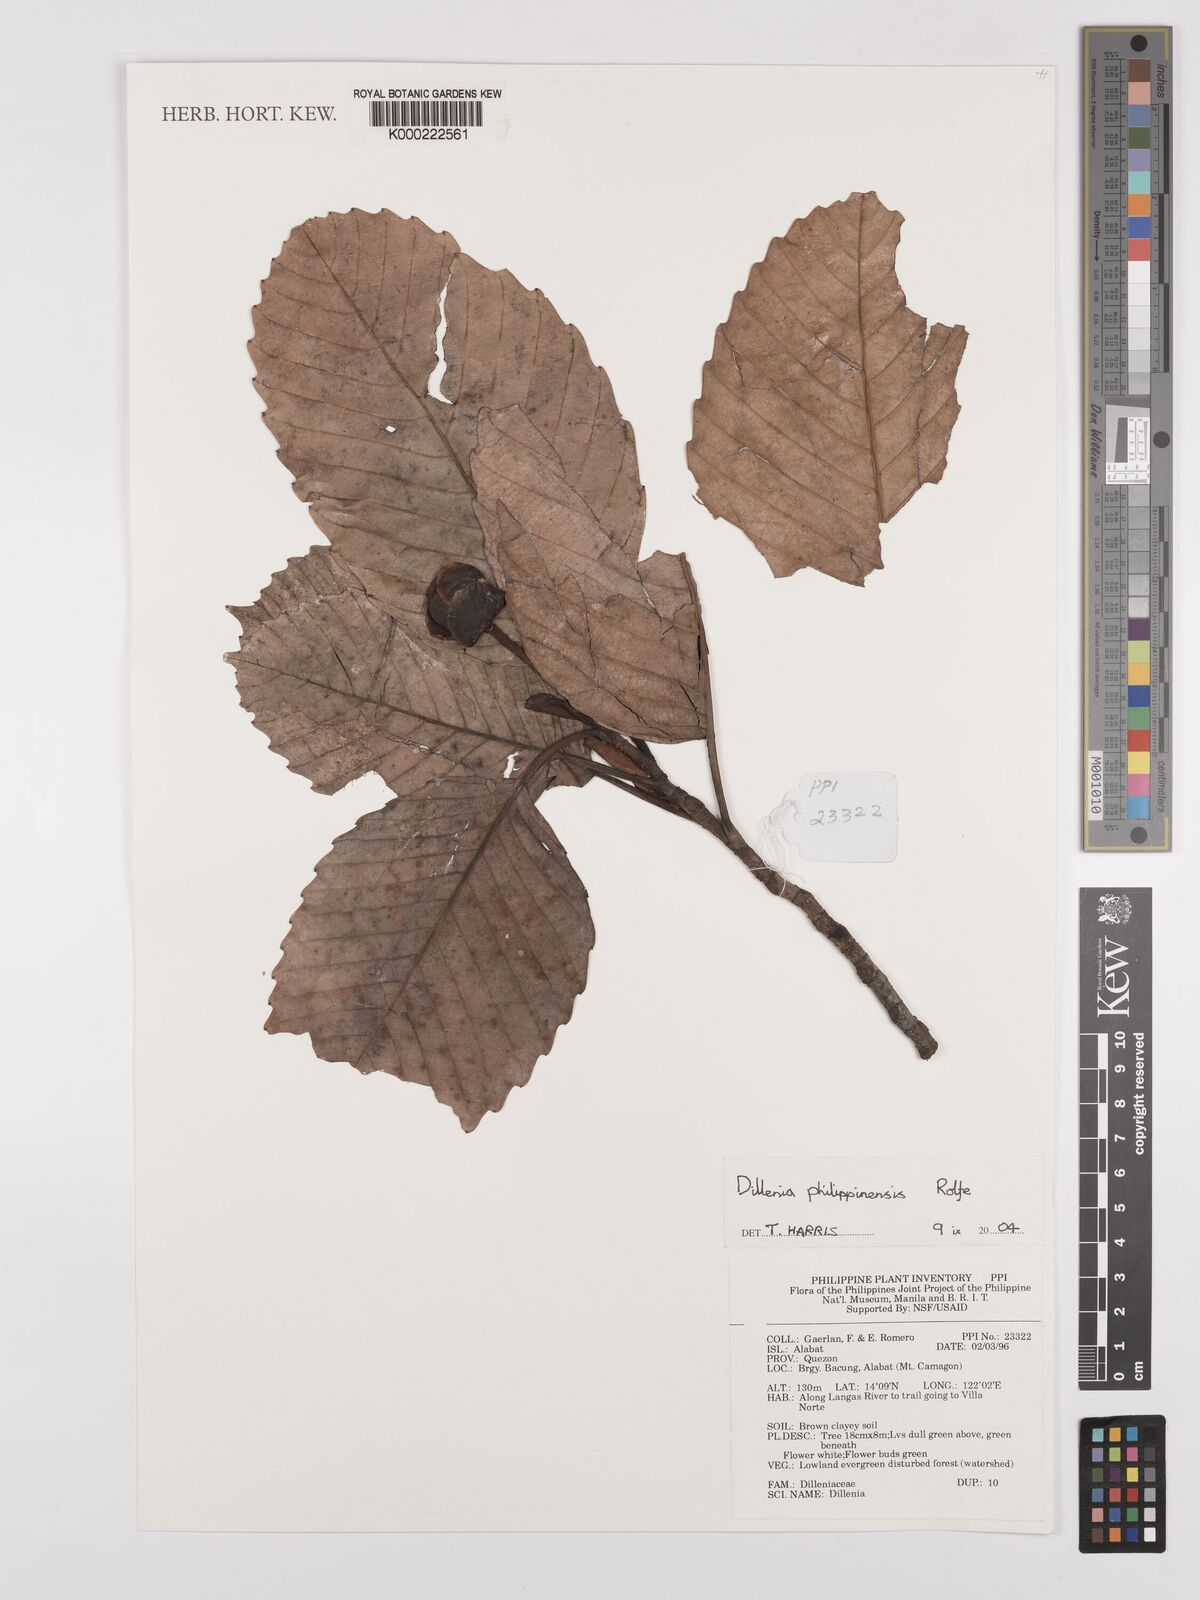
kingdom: Plantae
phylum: Tracheophyta
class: Magnoliopsida
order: Dilleniales
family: Dilleniaceae
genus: Dillenia
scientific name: Dillenia philippinensis
